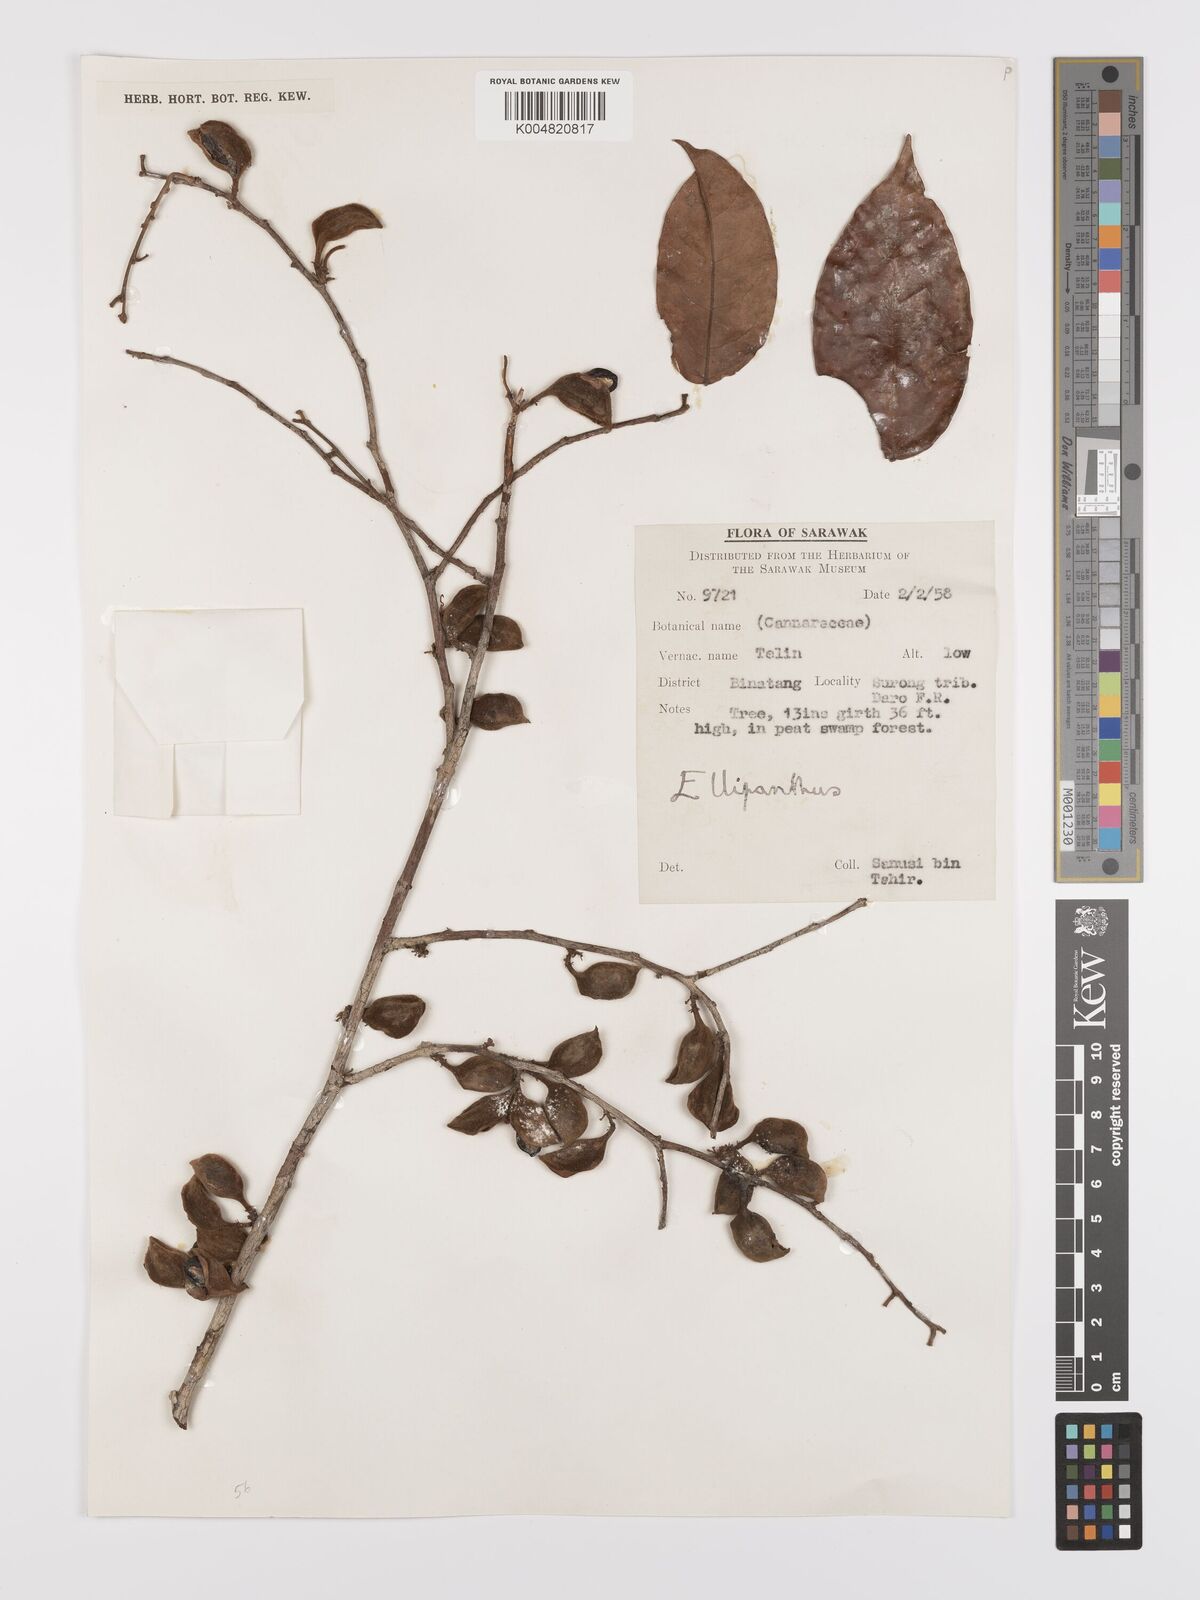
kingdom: Plantae
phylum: Tracheophyta
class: Magnoliopsida
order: Oxalidales
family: Connaraceae
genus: Ellipanthus
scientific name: Ellipanthus
